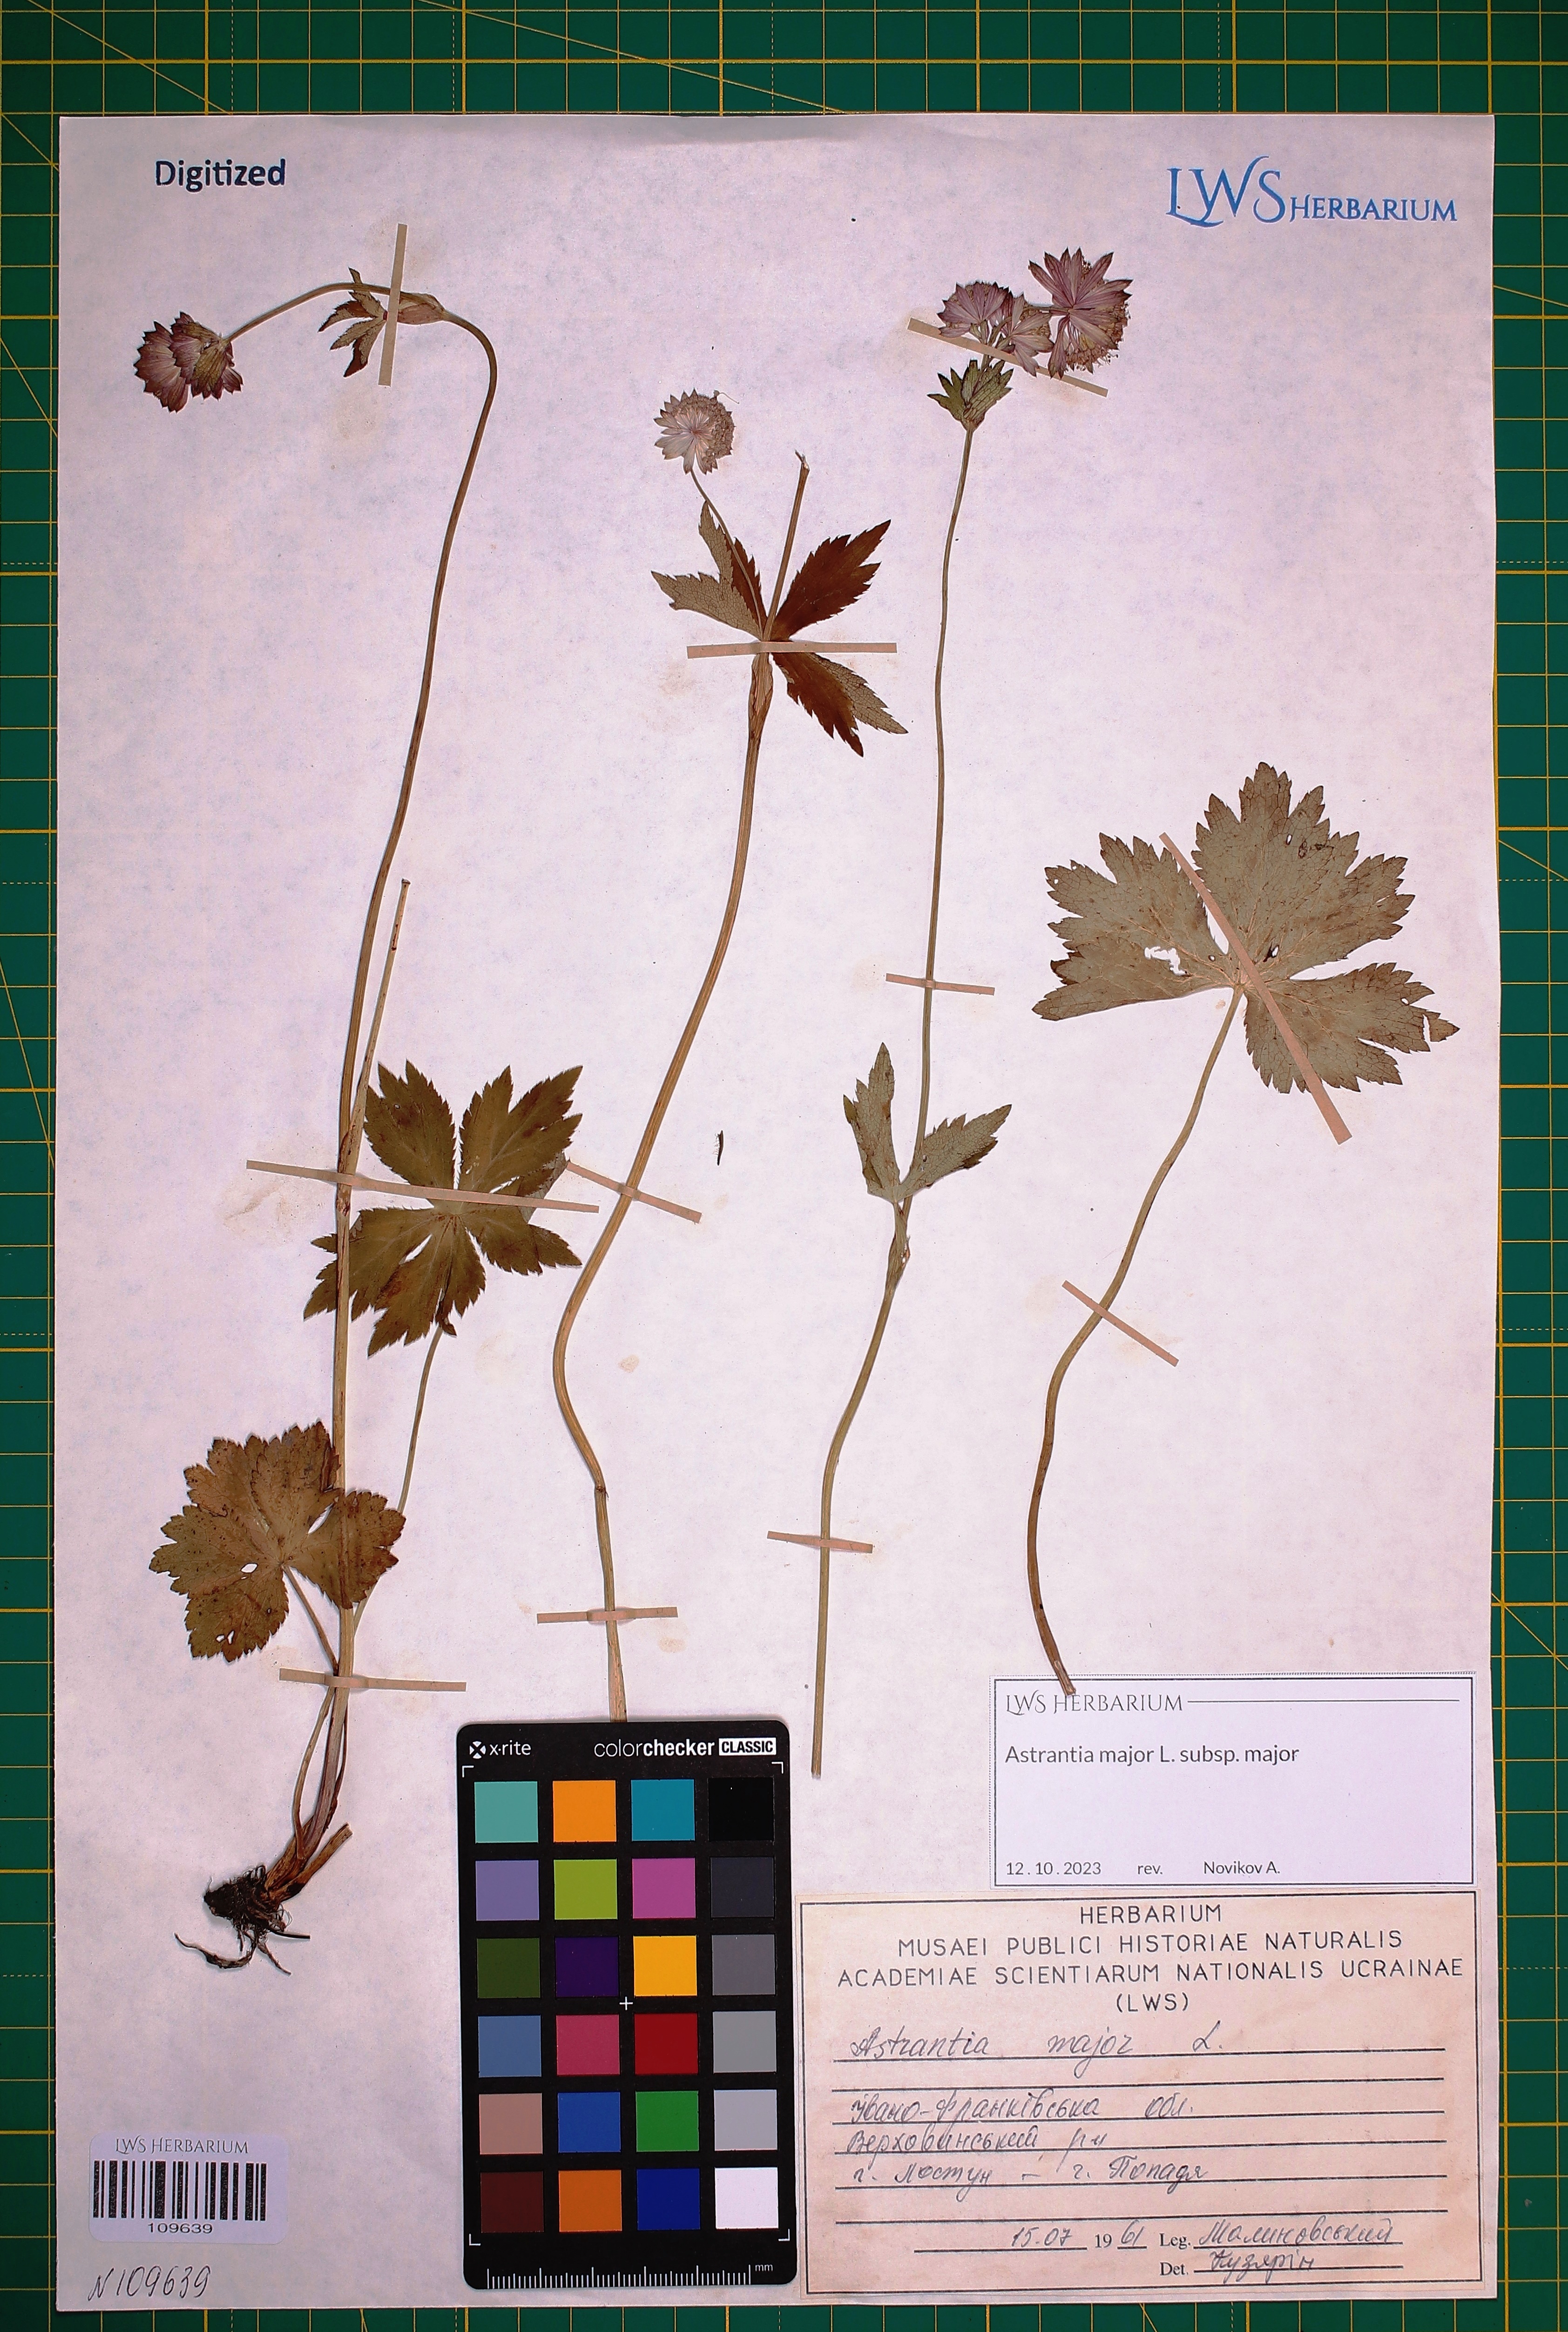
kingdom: Plantae
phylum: Tracheophyta
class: Magnoliopsida
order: Apiales
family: Apiaceae
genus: Astrantia
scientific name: Astrantia major
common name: Greater masterwort
